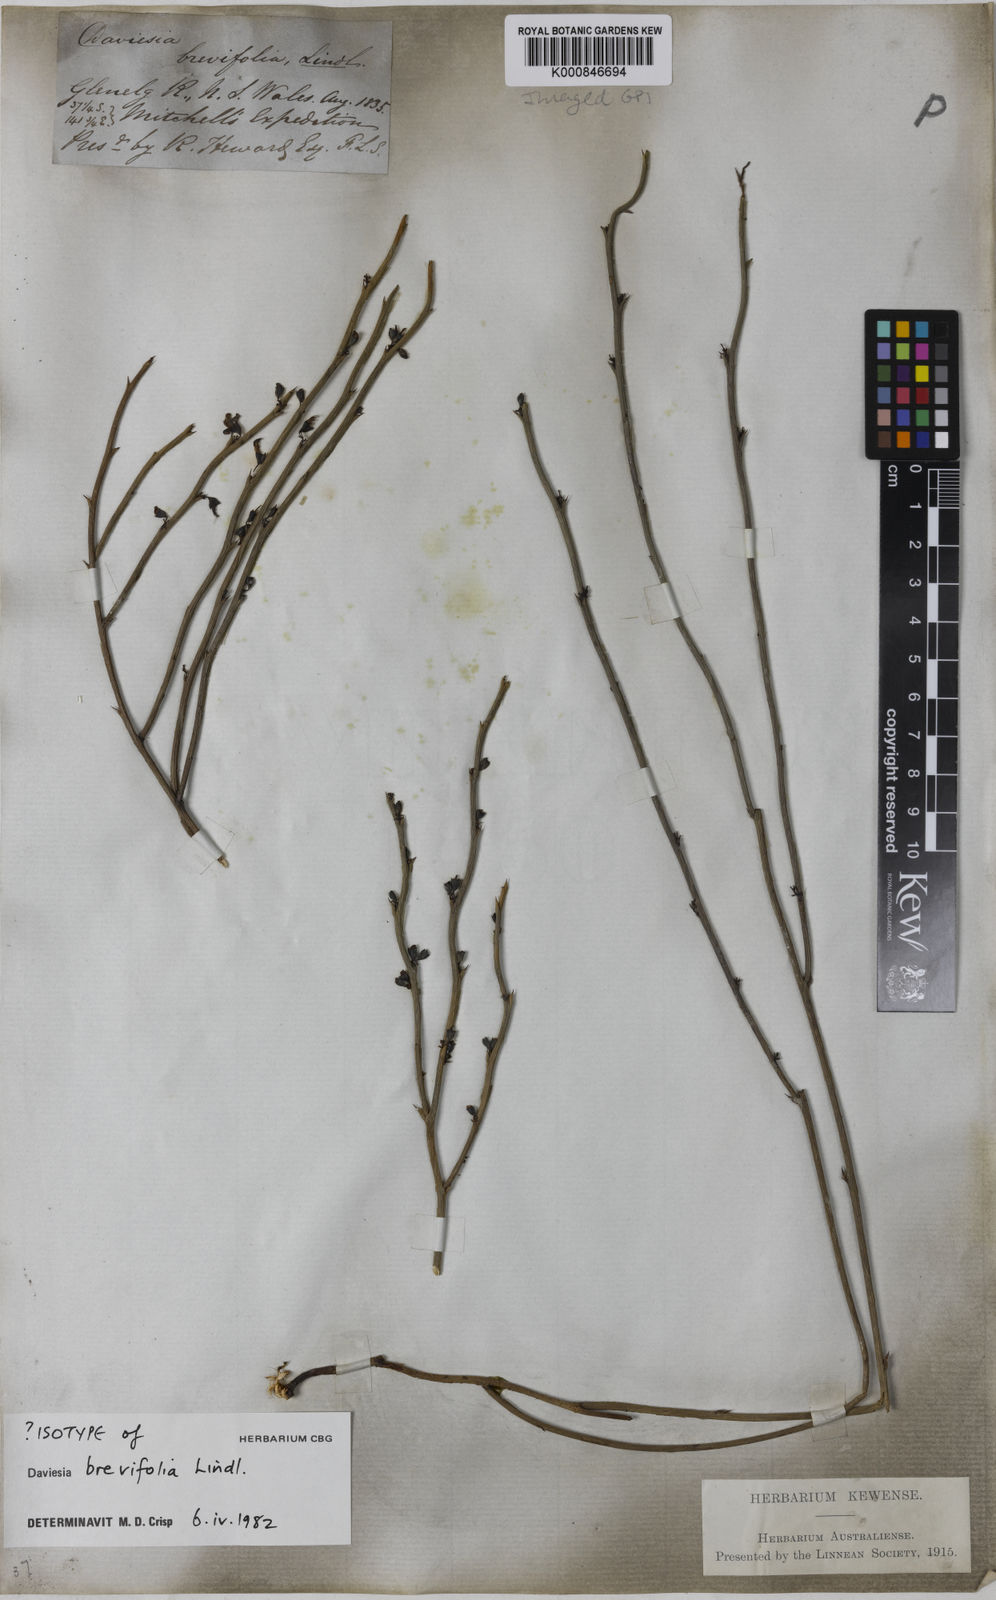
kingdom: Plantae
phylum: Tracheophyta
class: Magnoliopsida
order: Fabales
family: Fabaceae
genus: Daviesia
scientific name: Daviesia brevifolia
